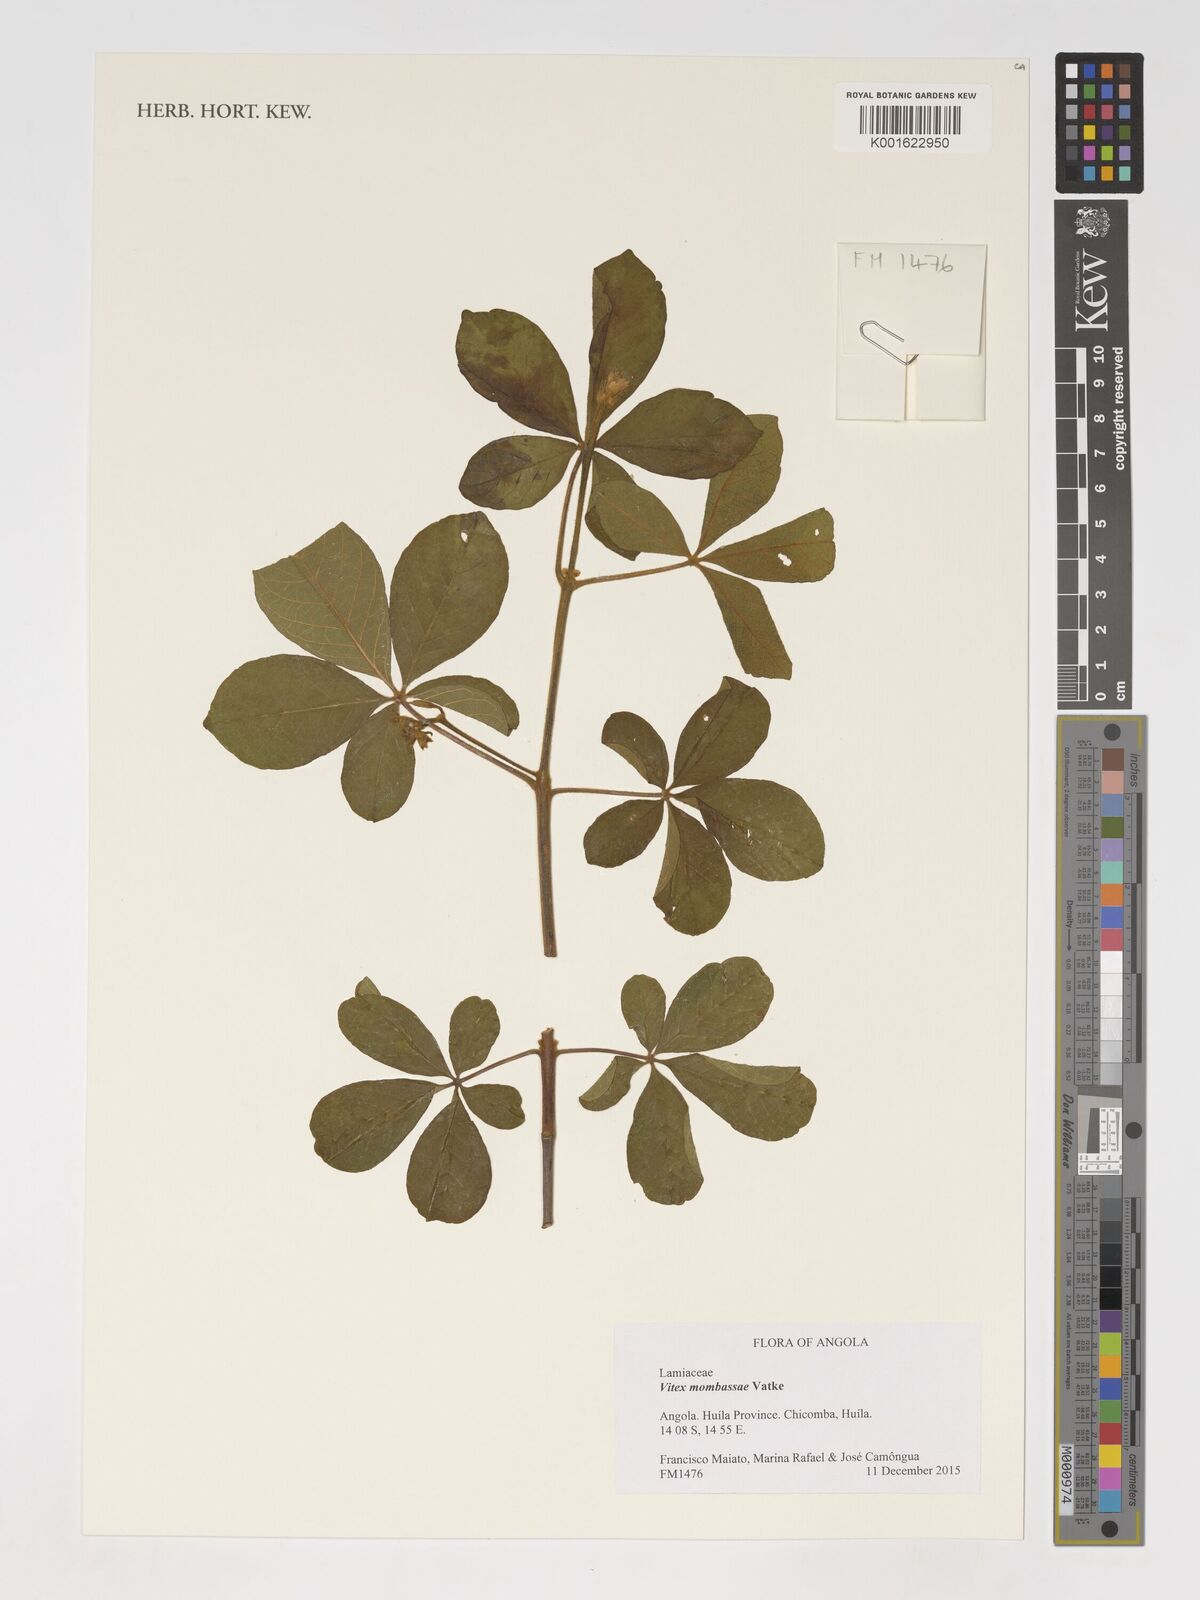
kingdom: Plantae
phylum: Tracheophyta
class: Magnoliopsida
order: Lamiales
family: Lamiaceae
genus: Vitex
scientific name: Vitex mombassae
